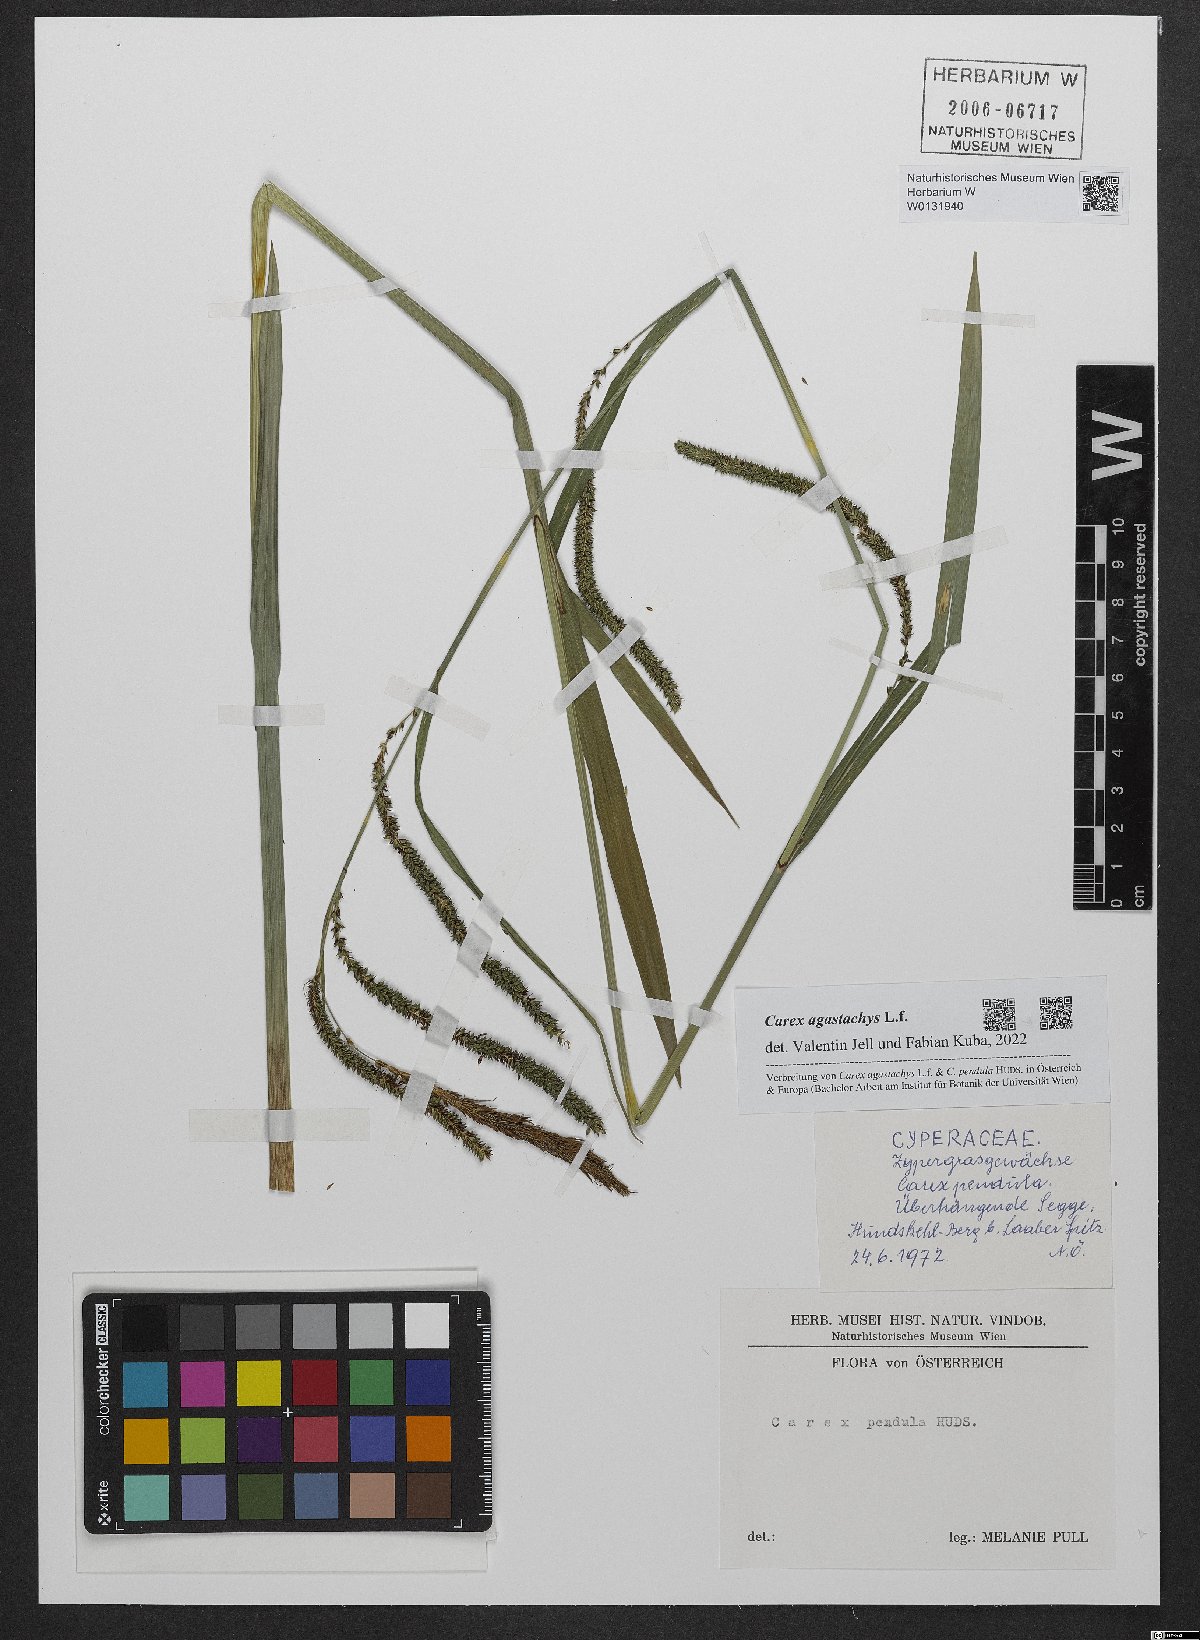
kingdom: Plantae
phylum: Tracheophyta
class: Liliopsida
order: Poales
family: Cyperaceae
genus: Carex
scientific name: Carex agastachys
